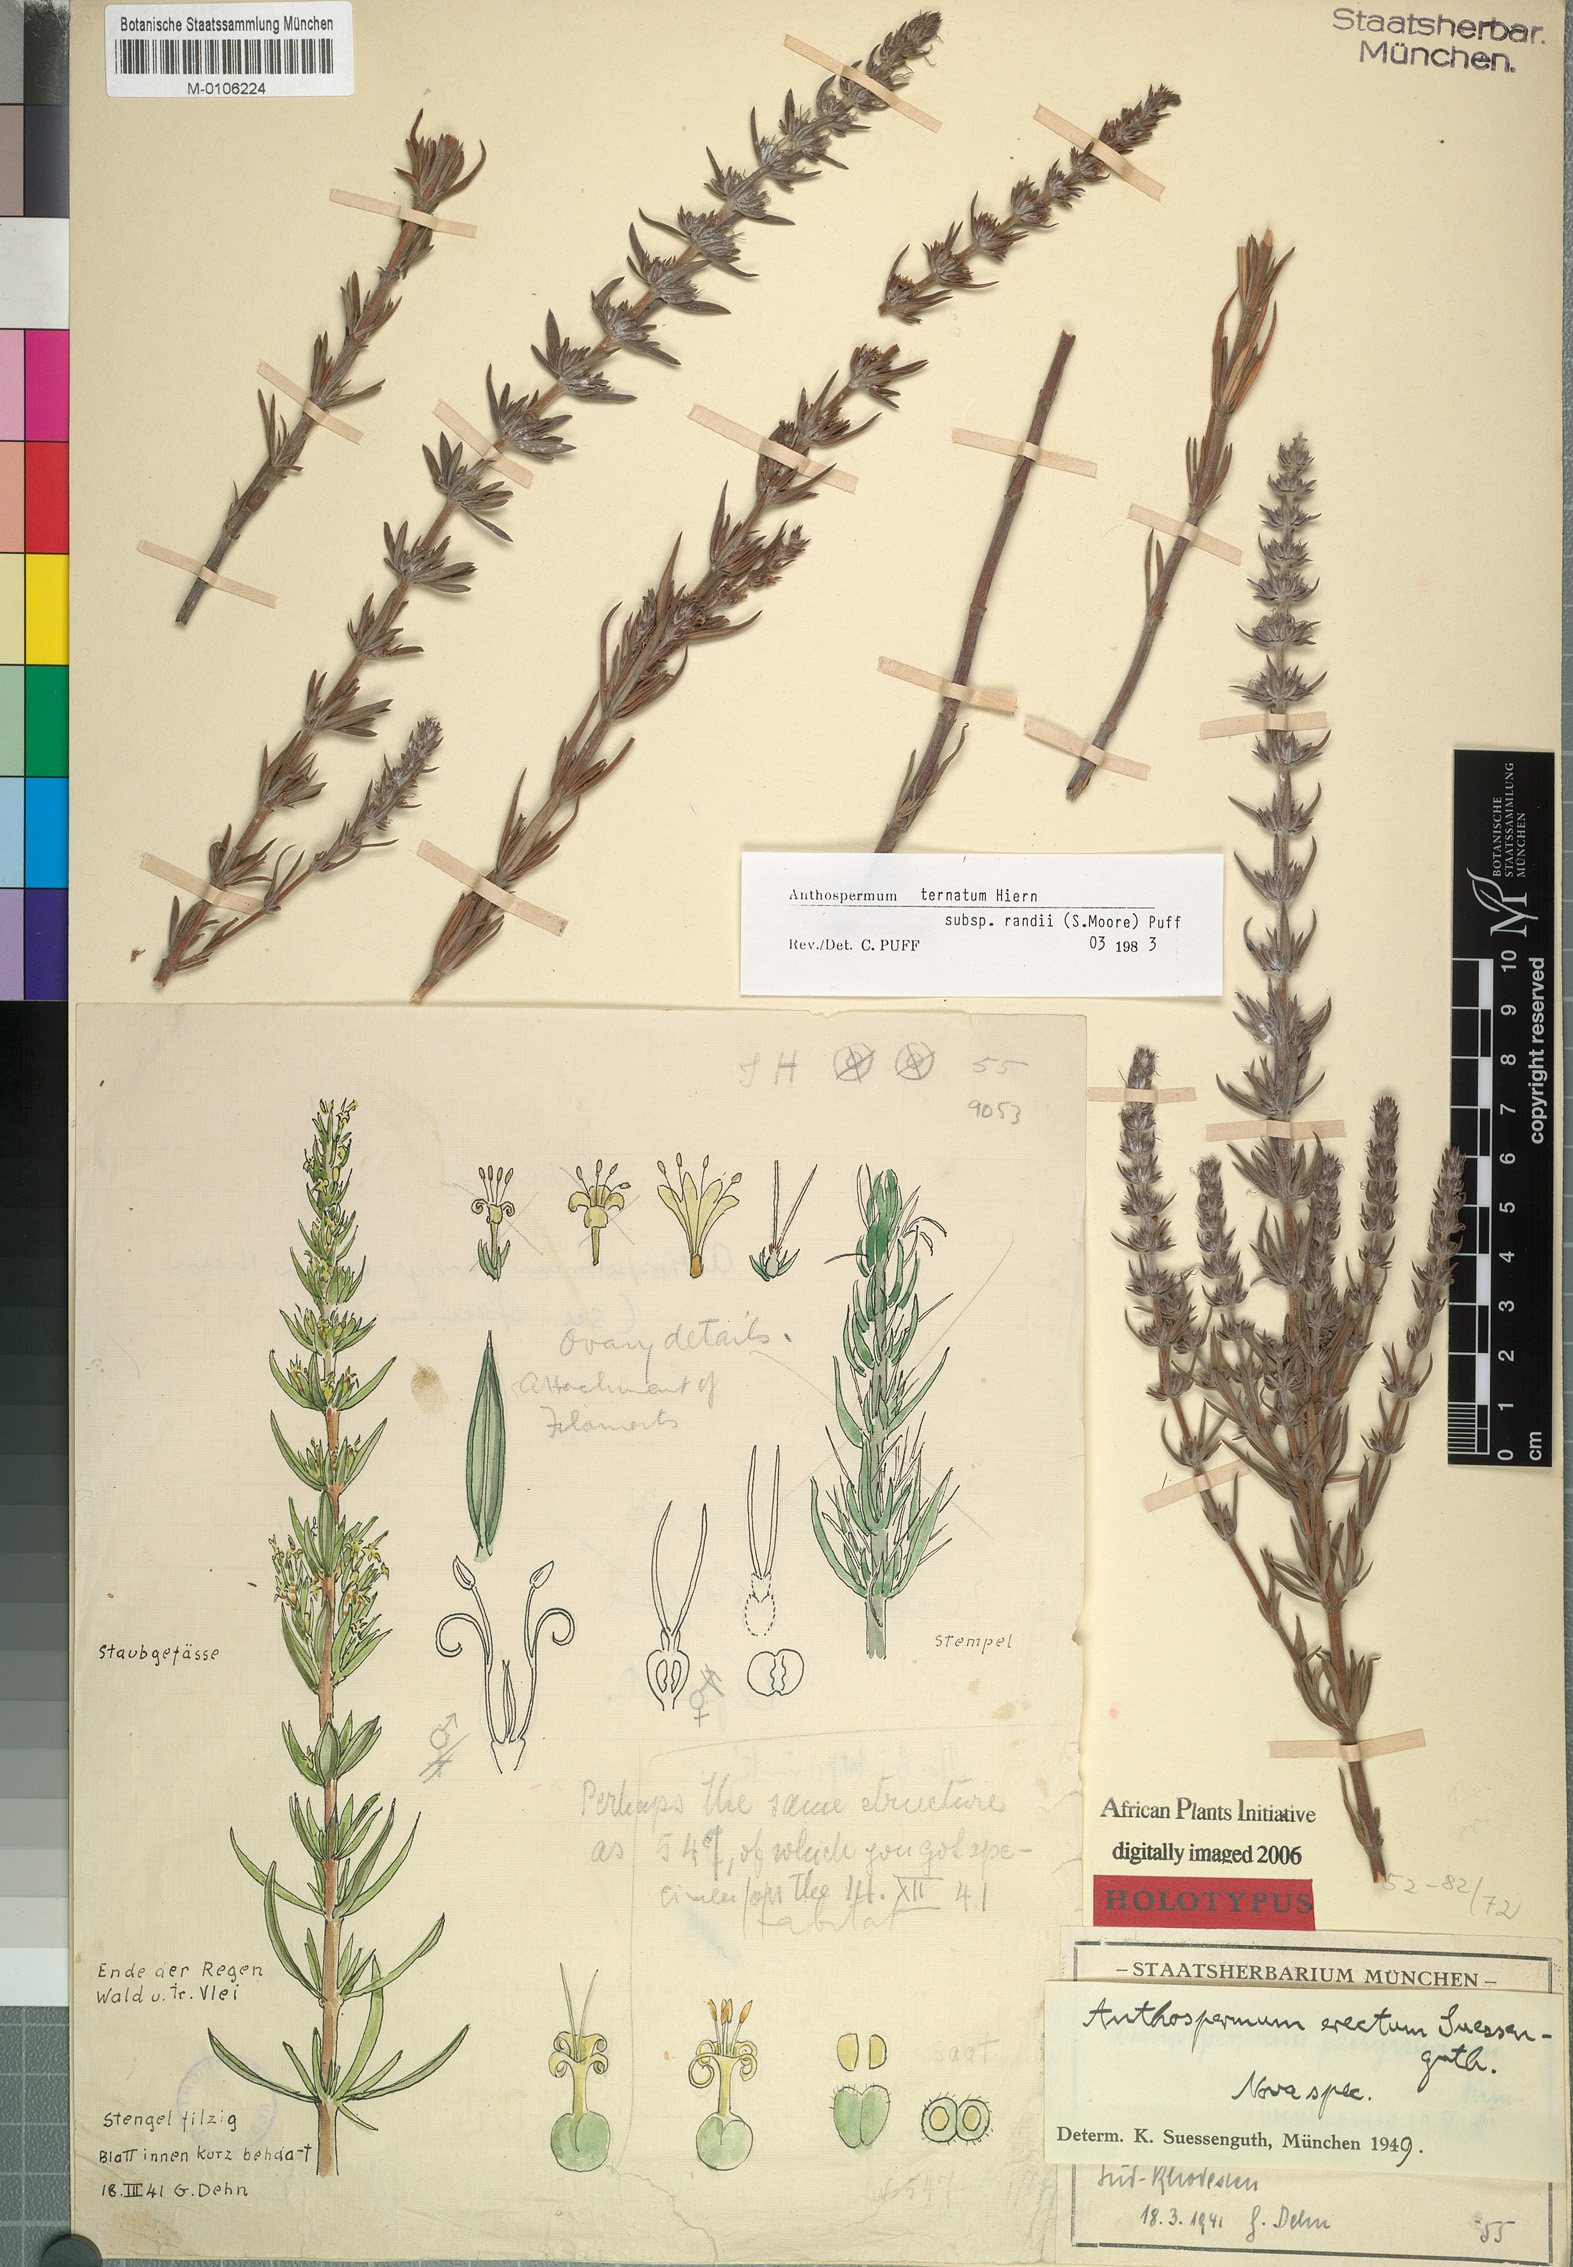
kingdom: Plantae
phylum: Tracheophyta
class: Magnoliopsida
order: Gentianales
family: Rubiaceae
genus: Anthospermum
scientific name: Anthospermum ternatum
